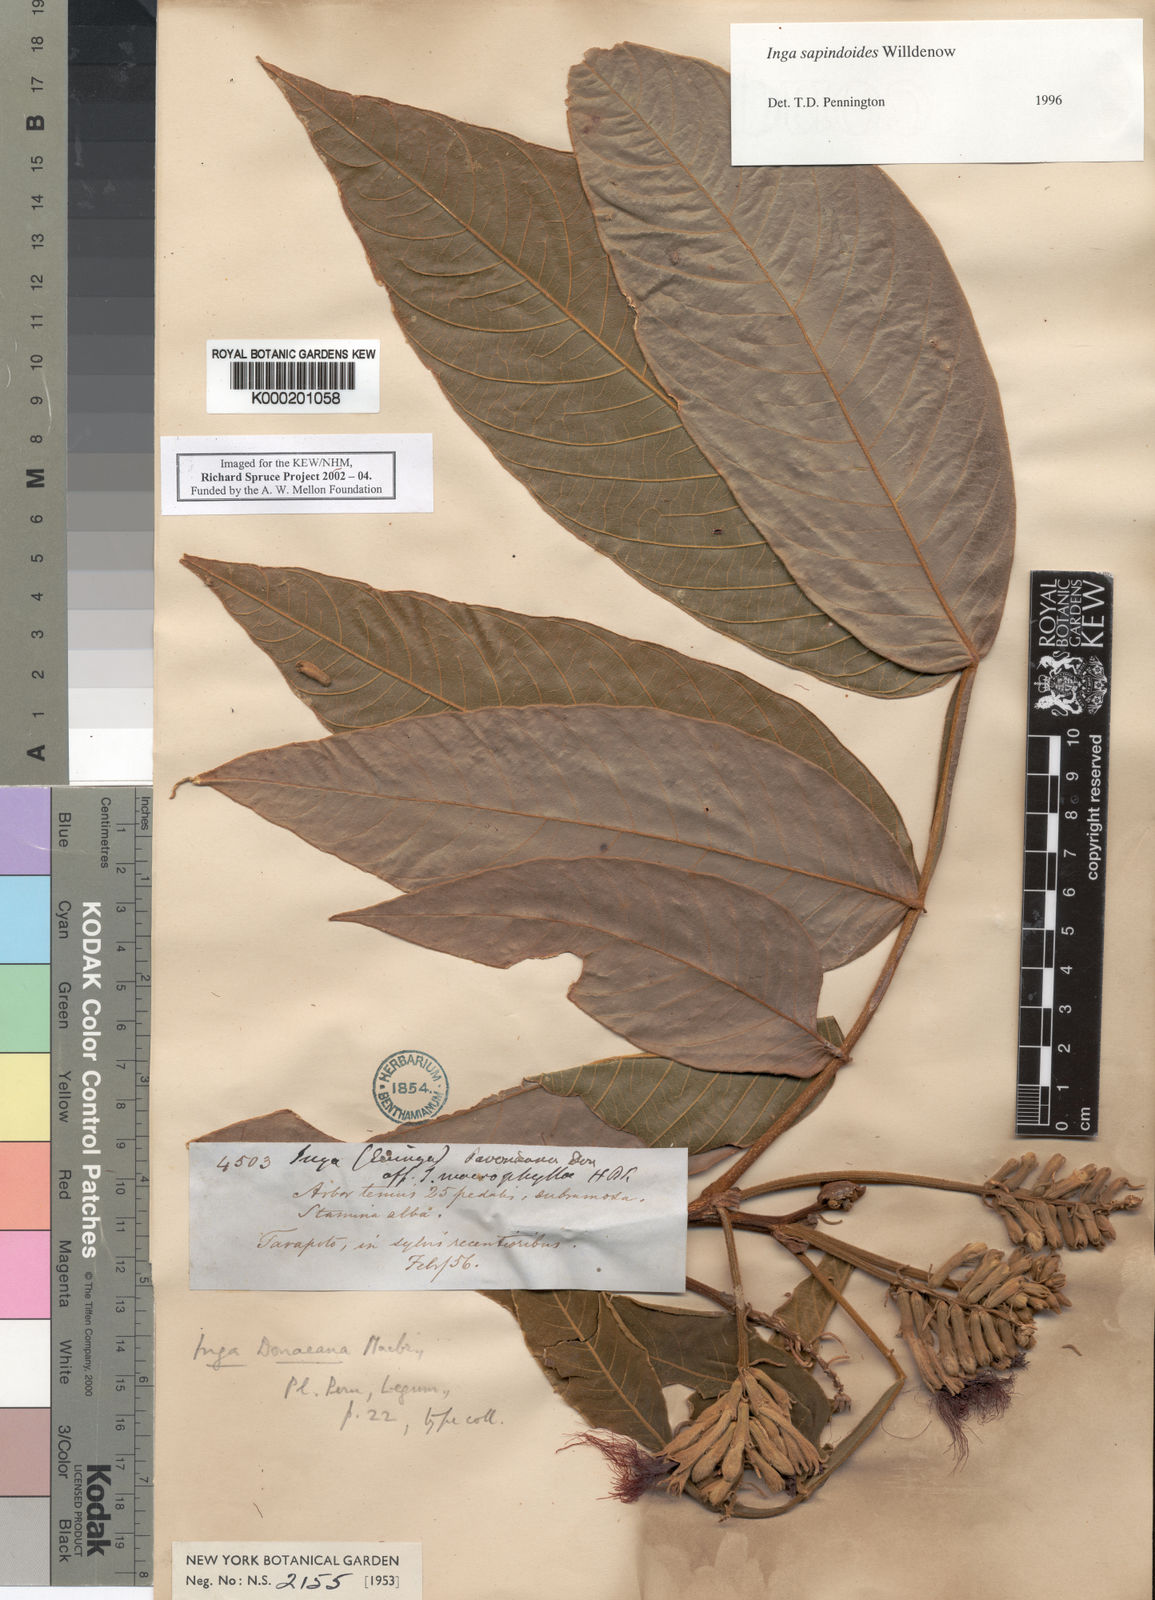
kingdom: Plantae
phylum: Tracheophyta
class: Magnoliopsida
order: Fabales
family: Fabaceae
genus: Inga
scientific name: Inga sapindoides
